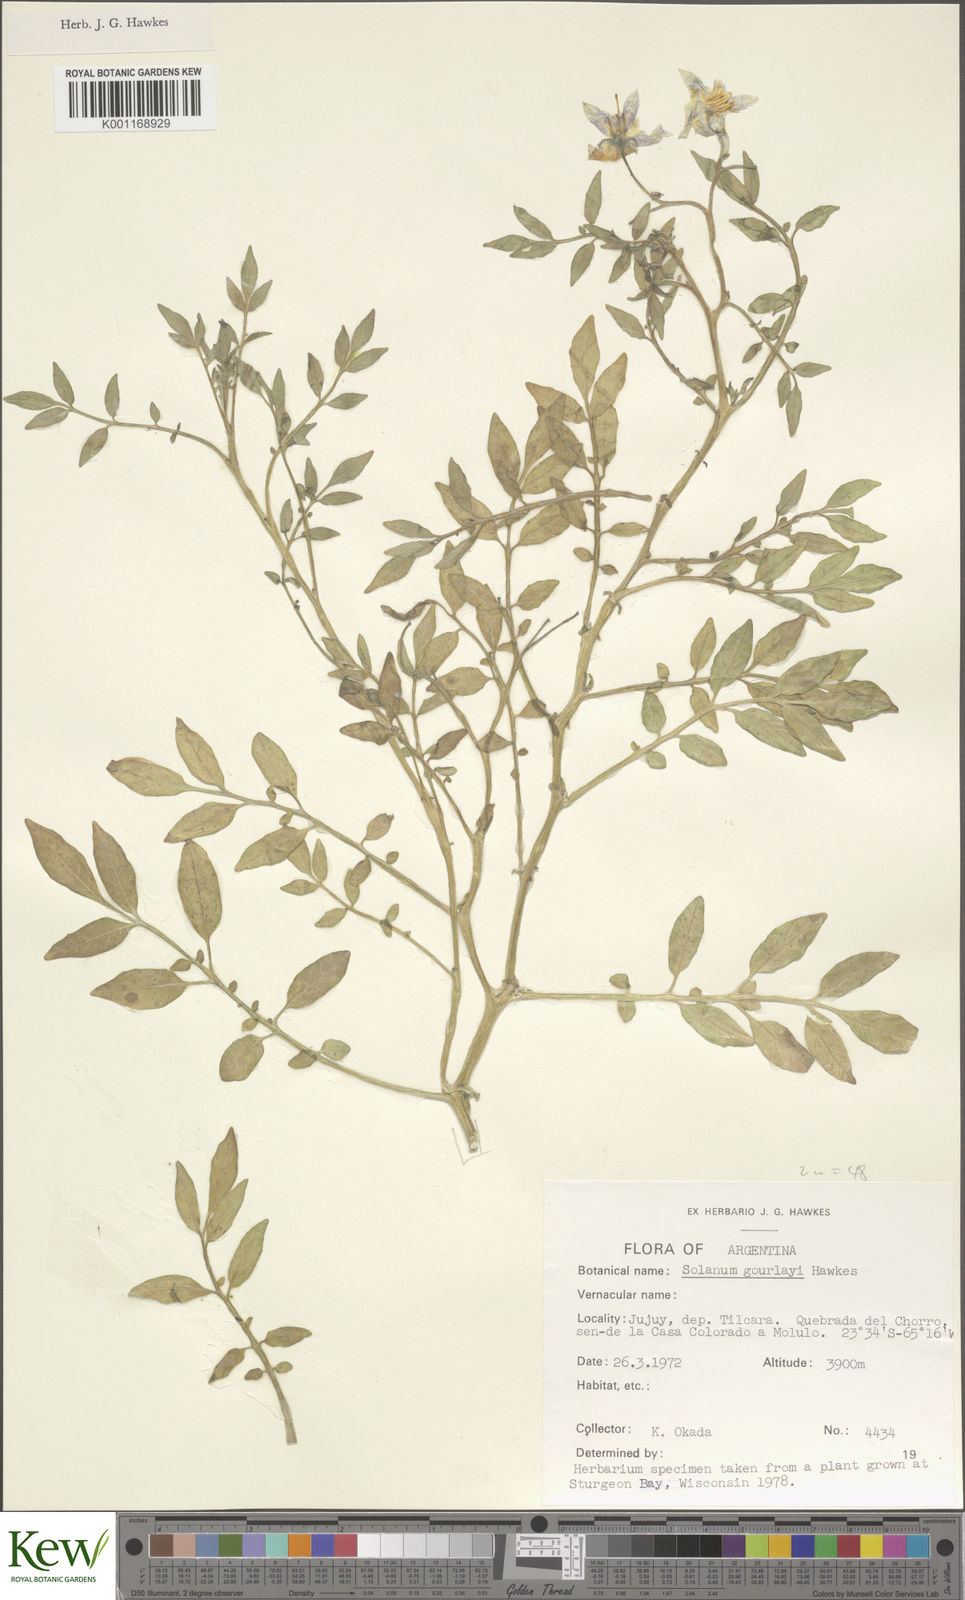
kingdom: Plantae
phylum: Tracheophyta
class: Magnoliopsida
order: Solanales
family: Solanaceae
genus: Solanum
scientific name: Solanum brevicaule
